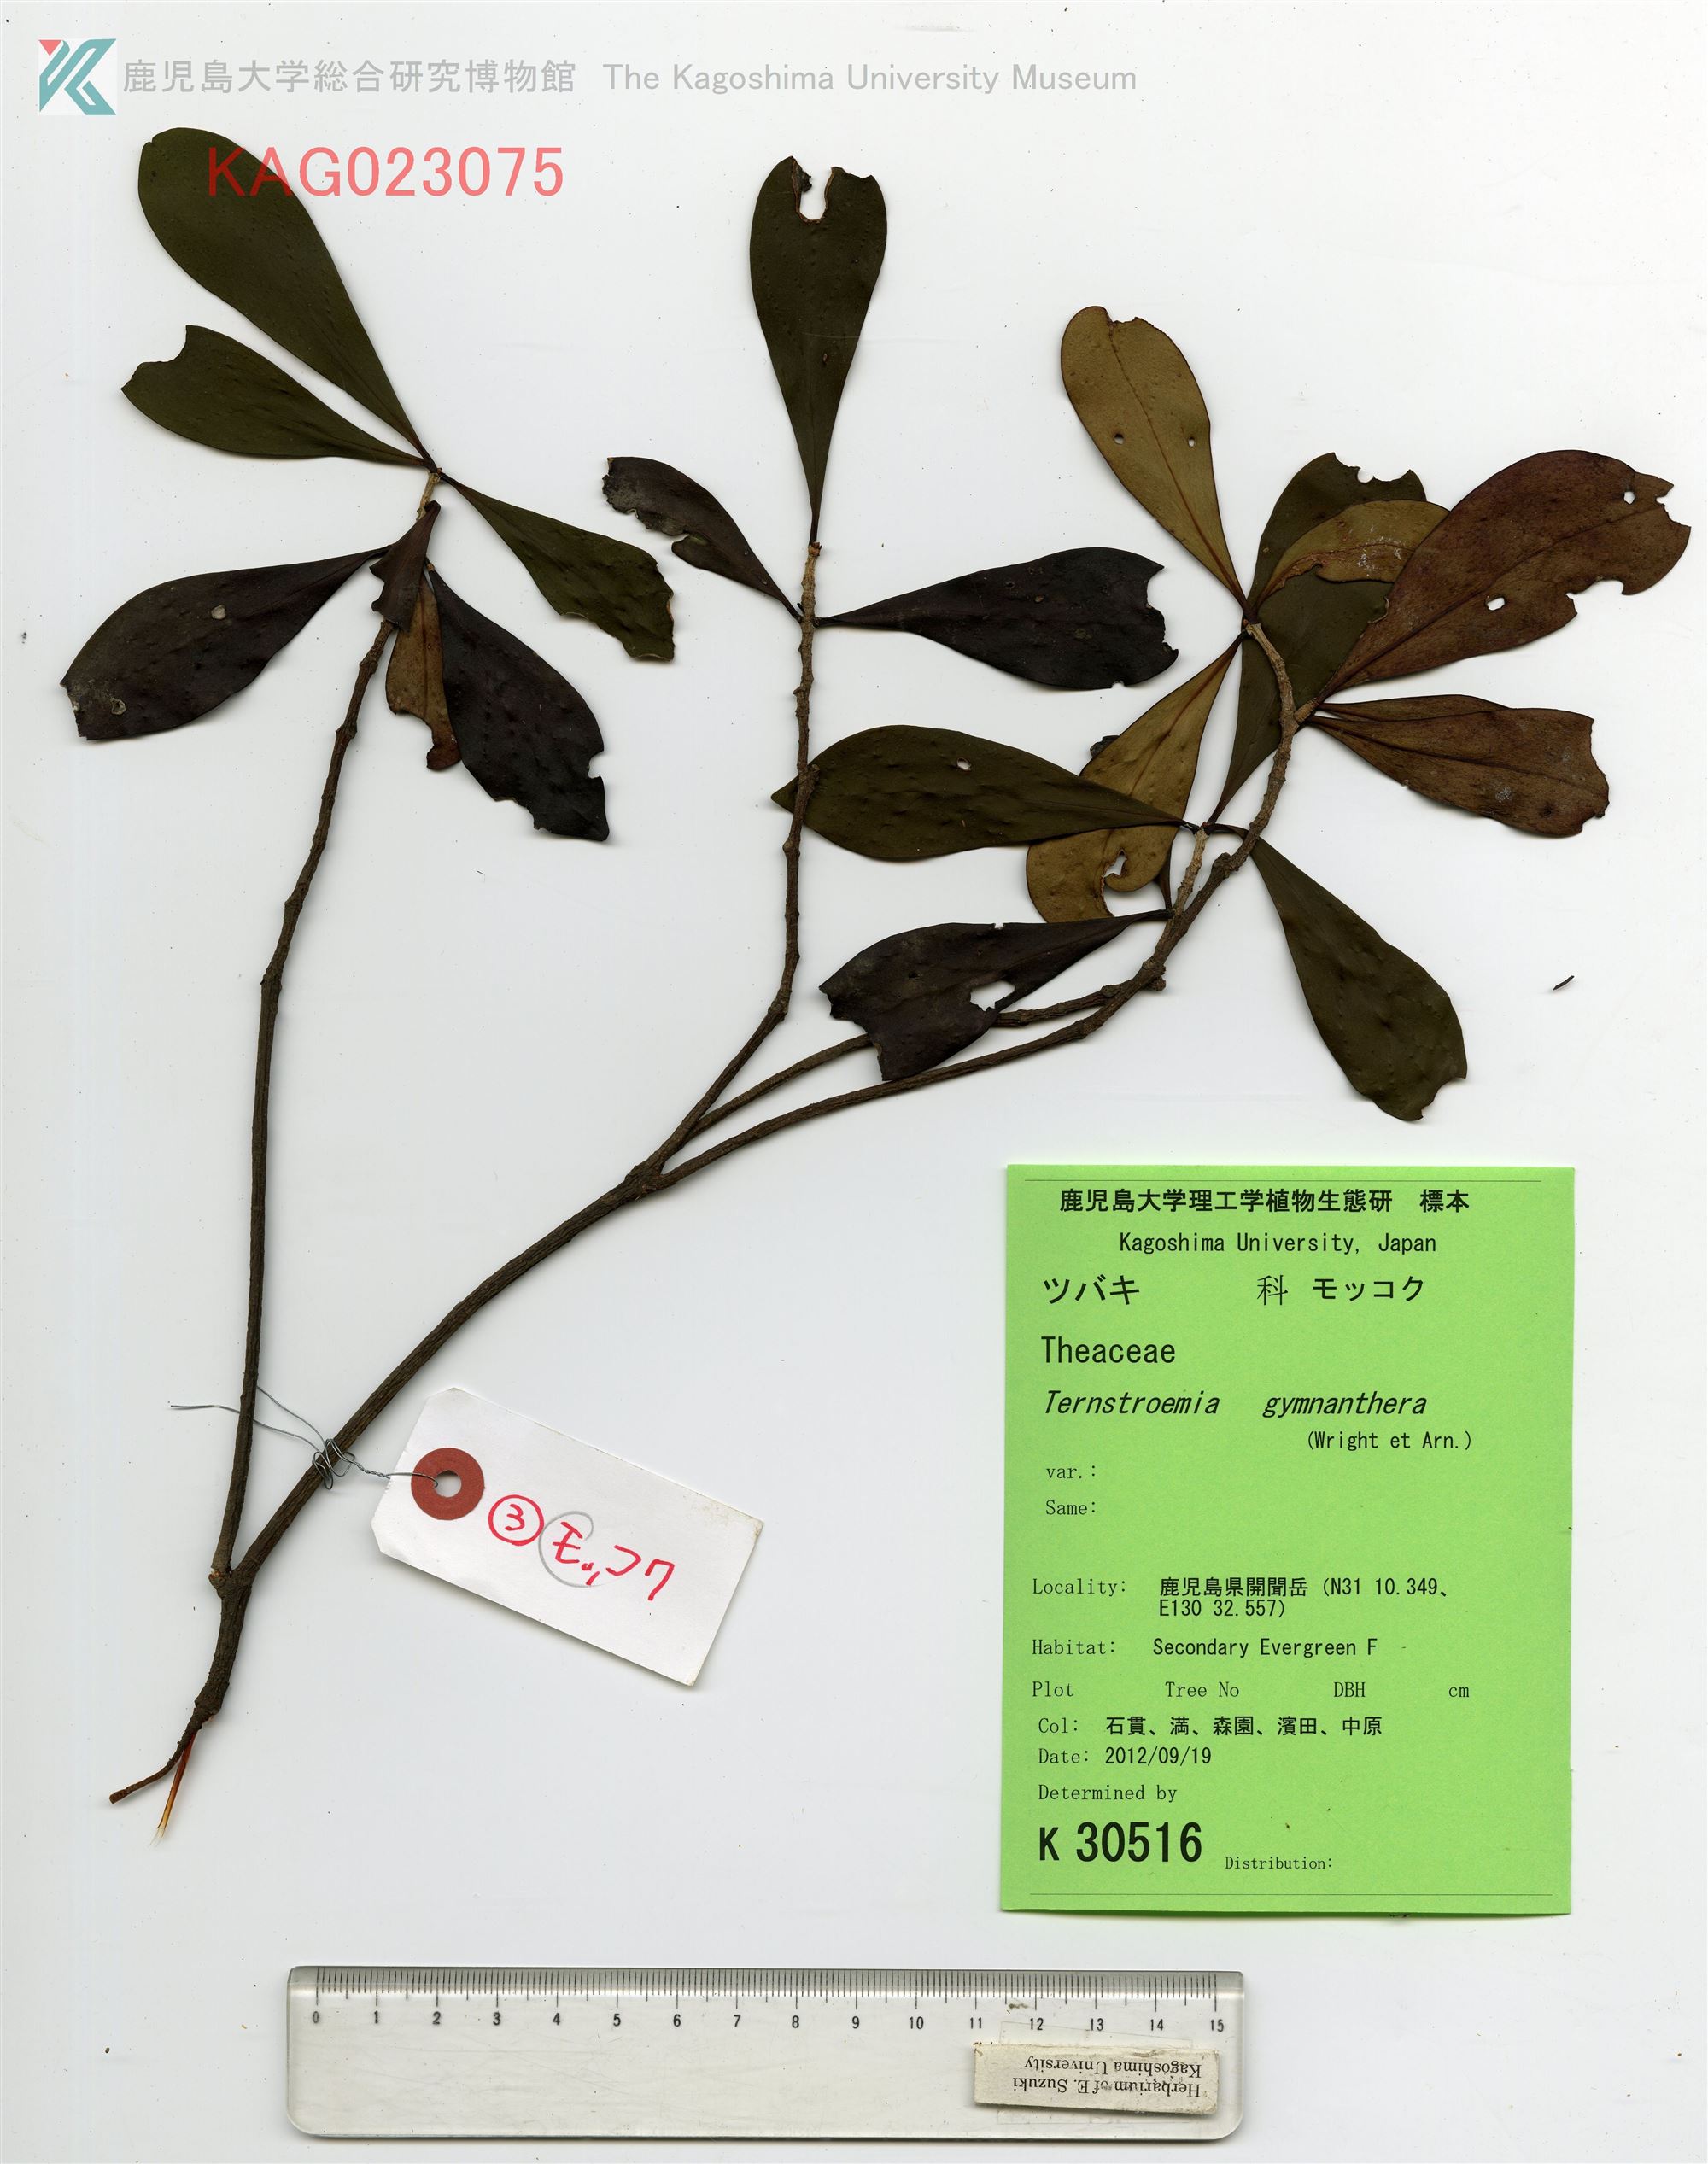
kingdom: Plantae
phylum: Tracheophyta
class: Magnoliopsida
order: Ericales
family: Pentaphylacaceae
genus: Ternstroemia
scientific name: Ternstroemia gymnanthera
